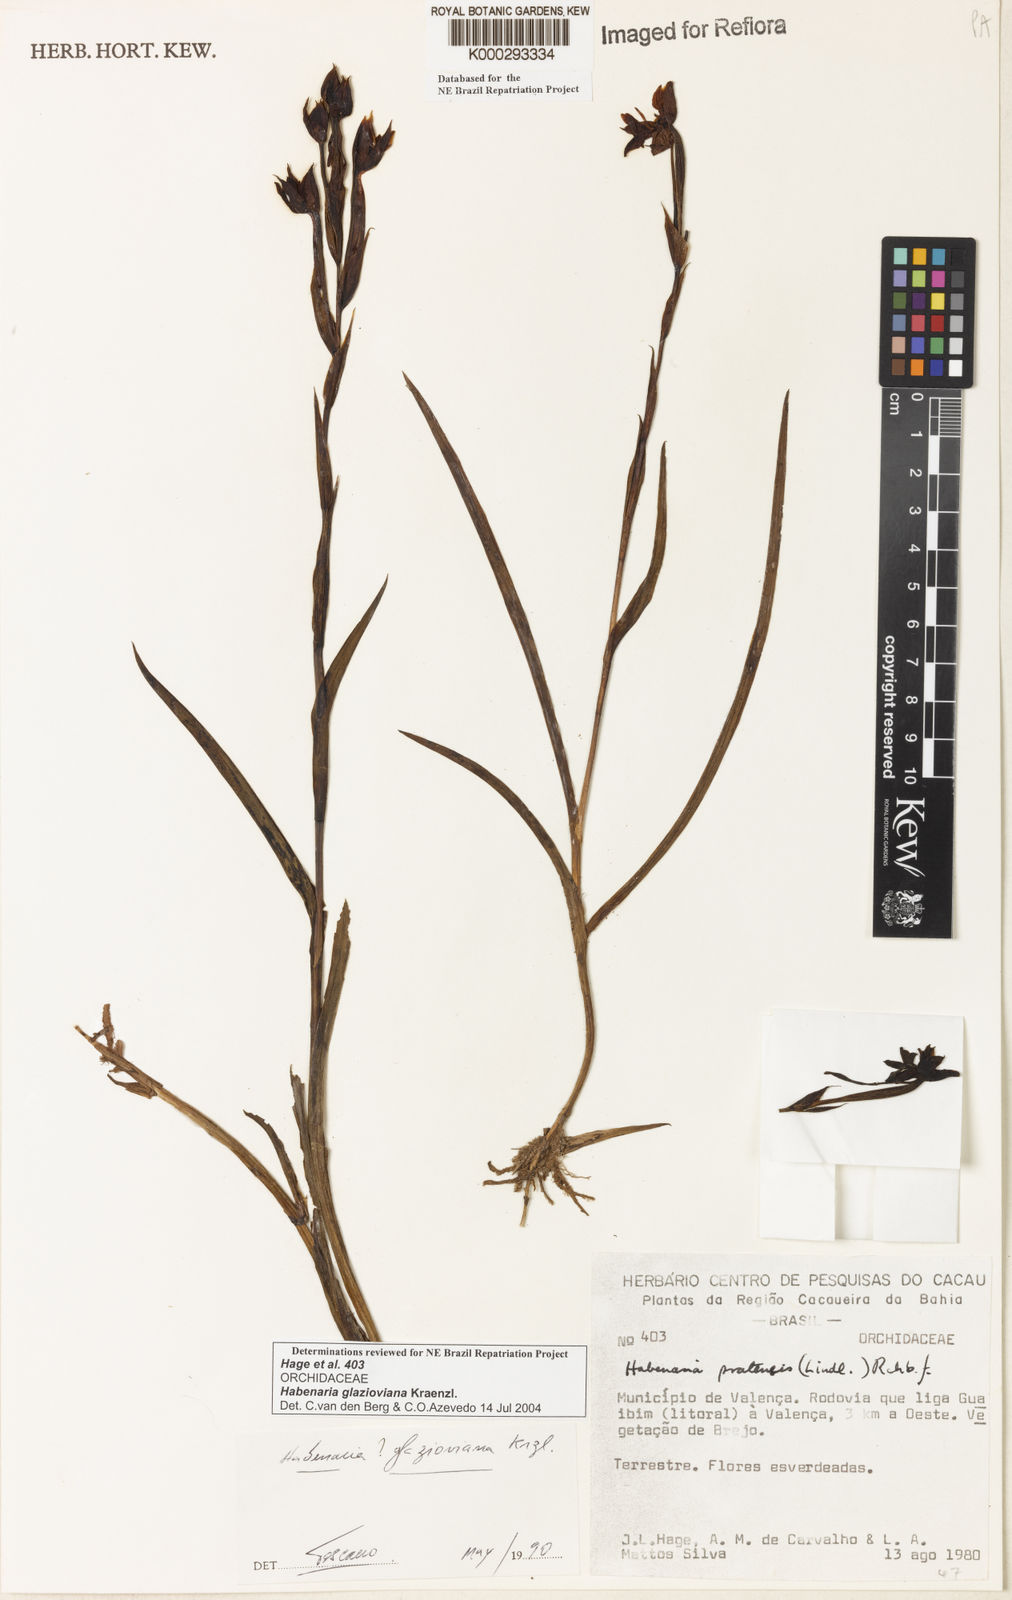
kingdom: Plantae
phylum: Tracheophyta
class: Liliopsida
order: Asparagales
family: Orchidaceae
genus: Habenaria
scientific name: Habenaria
